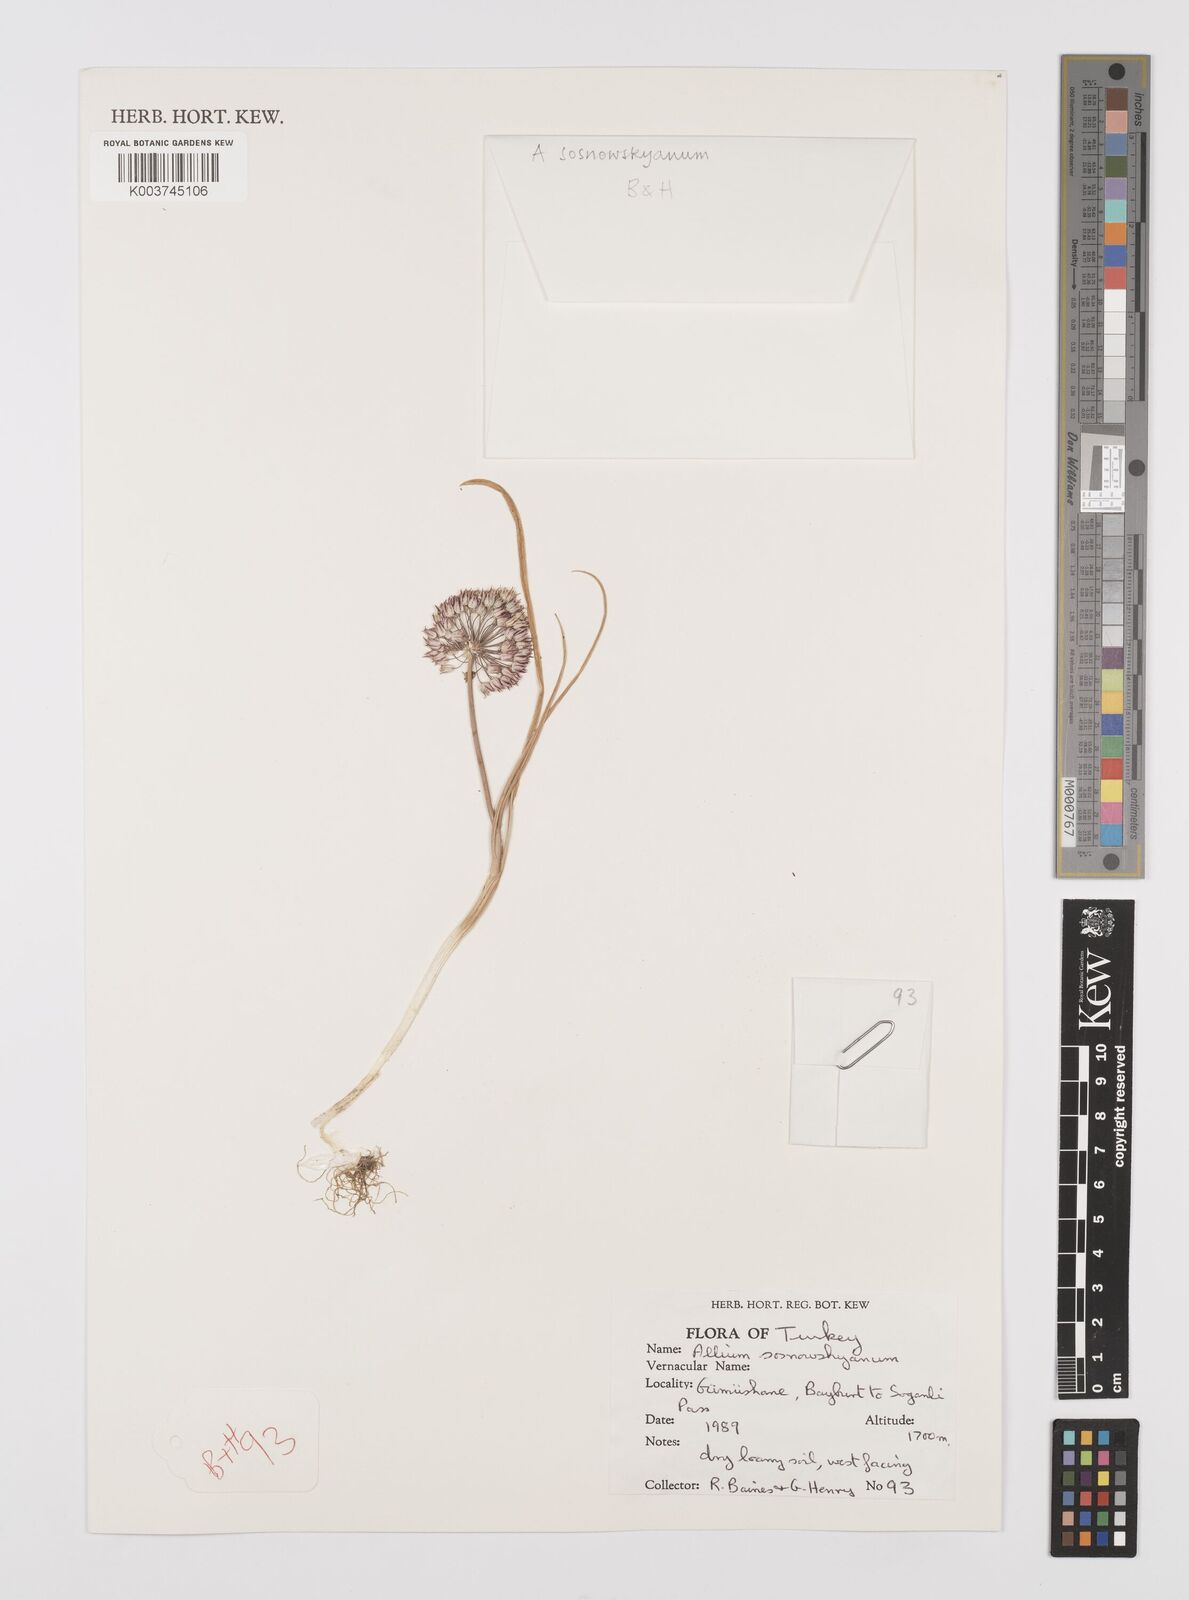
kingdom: Plantae
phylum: Tracheophyta
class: Liliopsida
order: Asparagales
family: Amaryllidaceae
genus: Allium
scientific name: Allium sosnovskyanum
